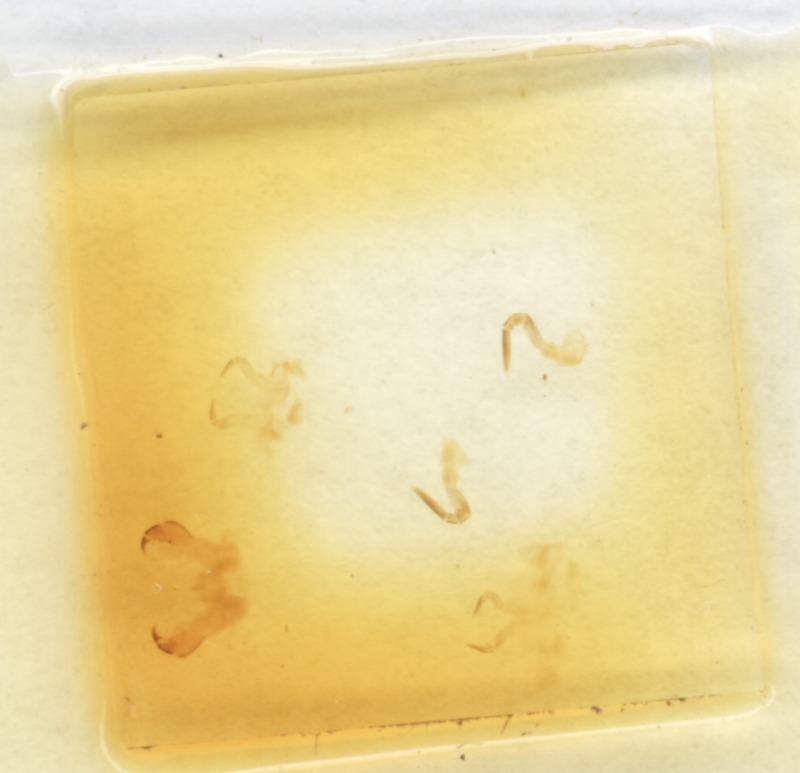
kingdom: Animalia
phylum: Arthropoda
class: Diplopoda
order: Glomerida
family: Glomeridae
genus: Glomeris
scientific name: Glomeris connexa
